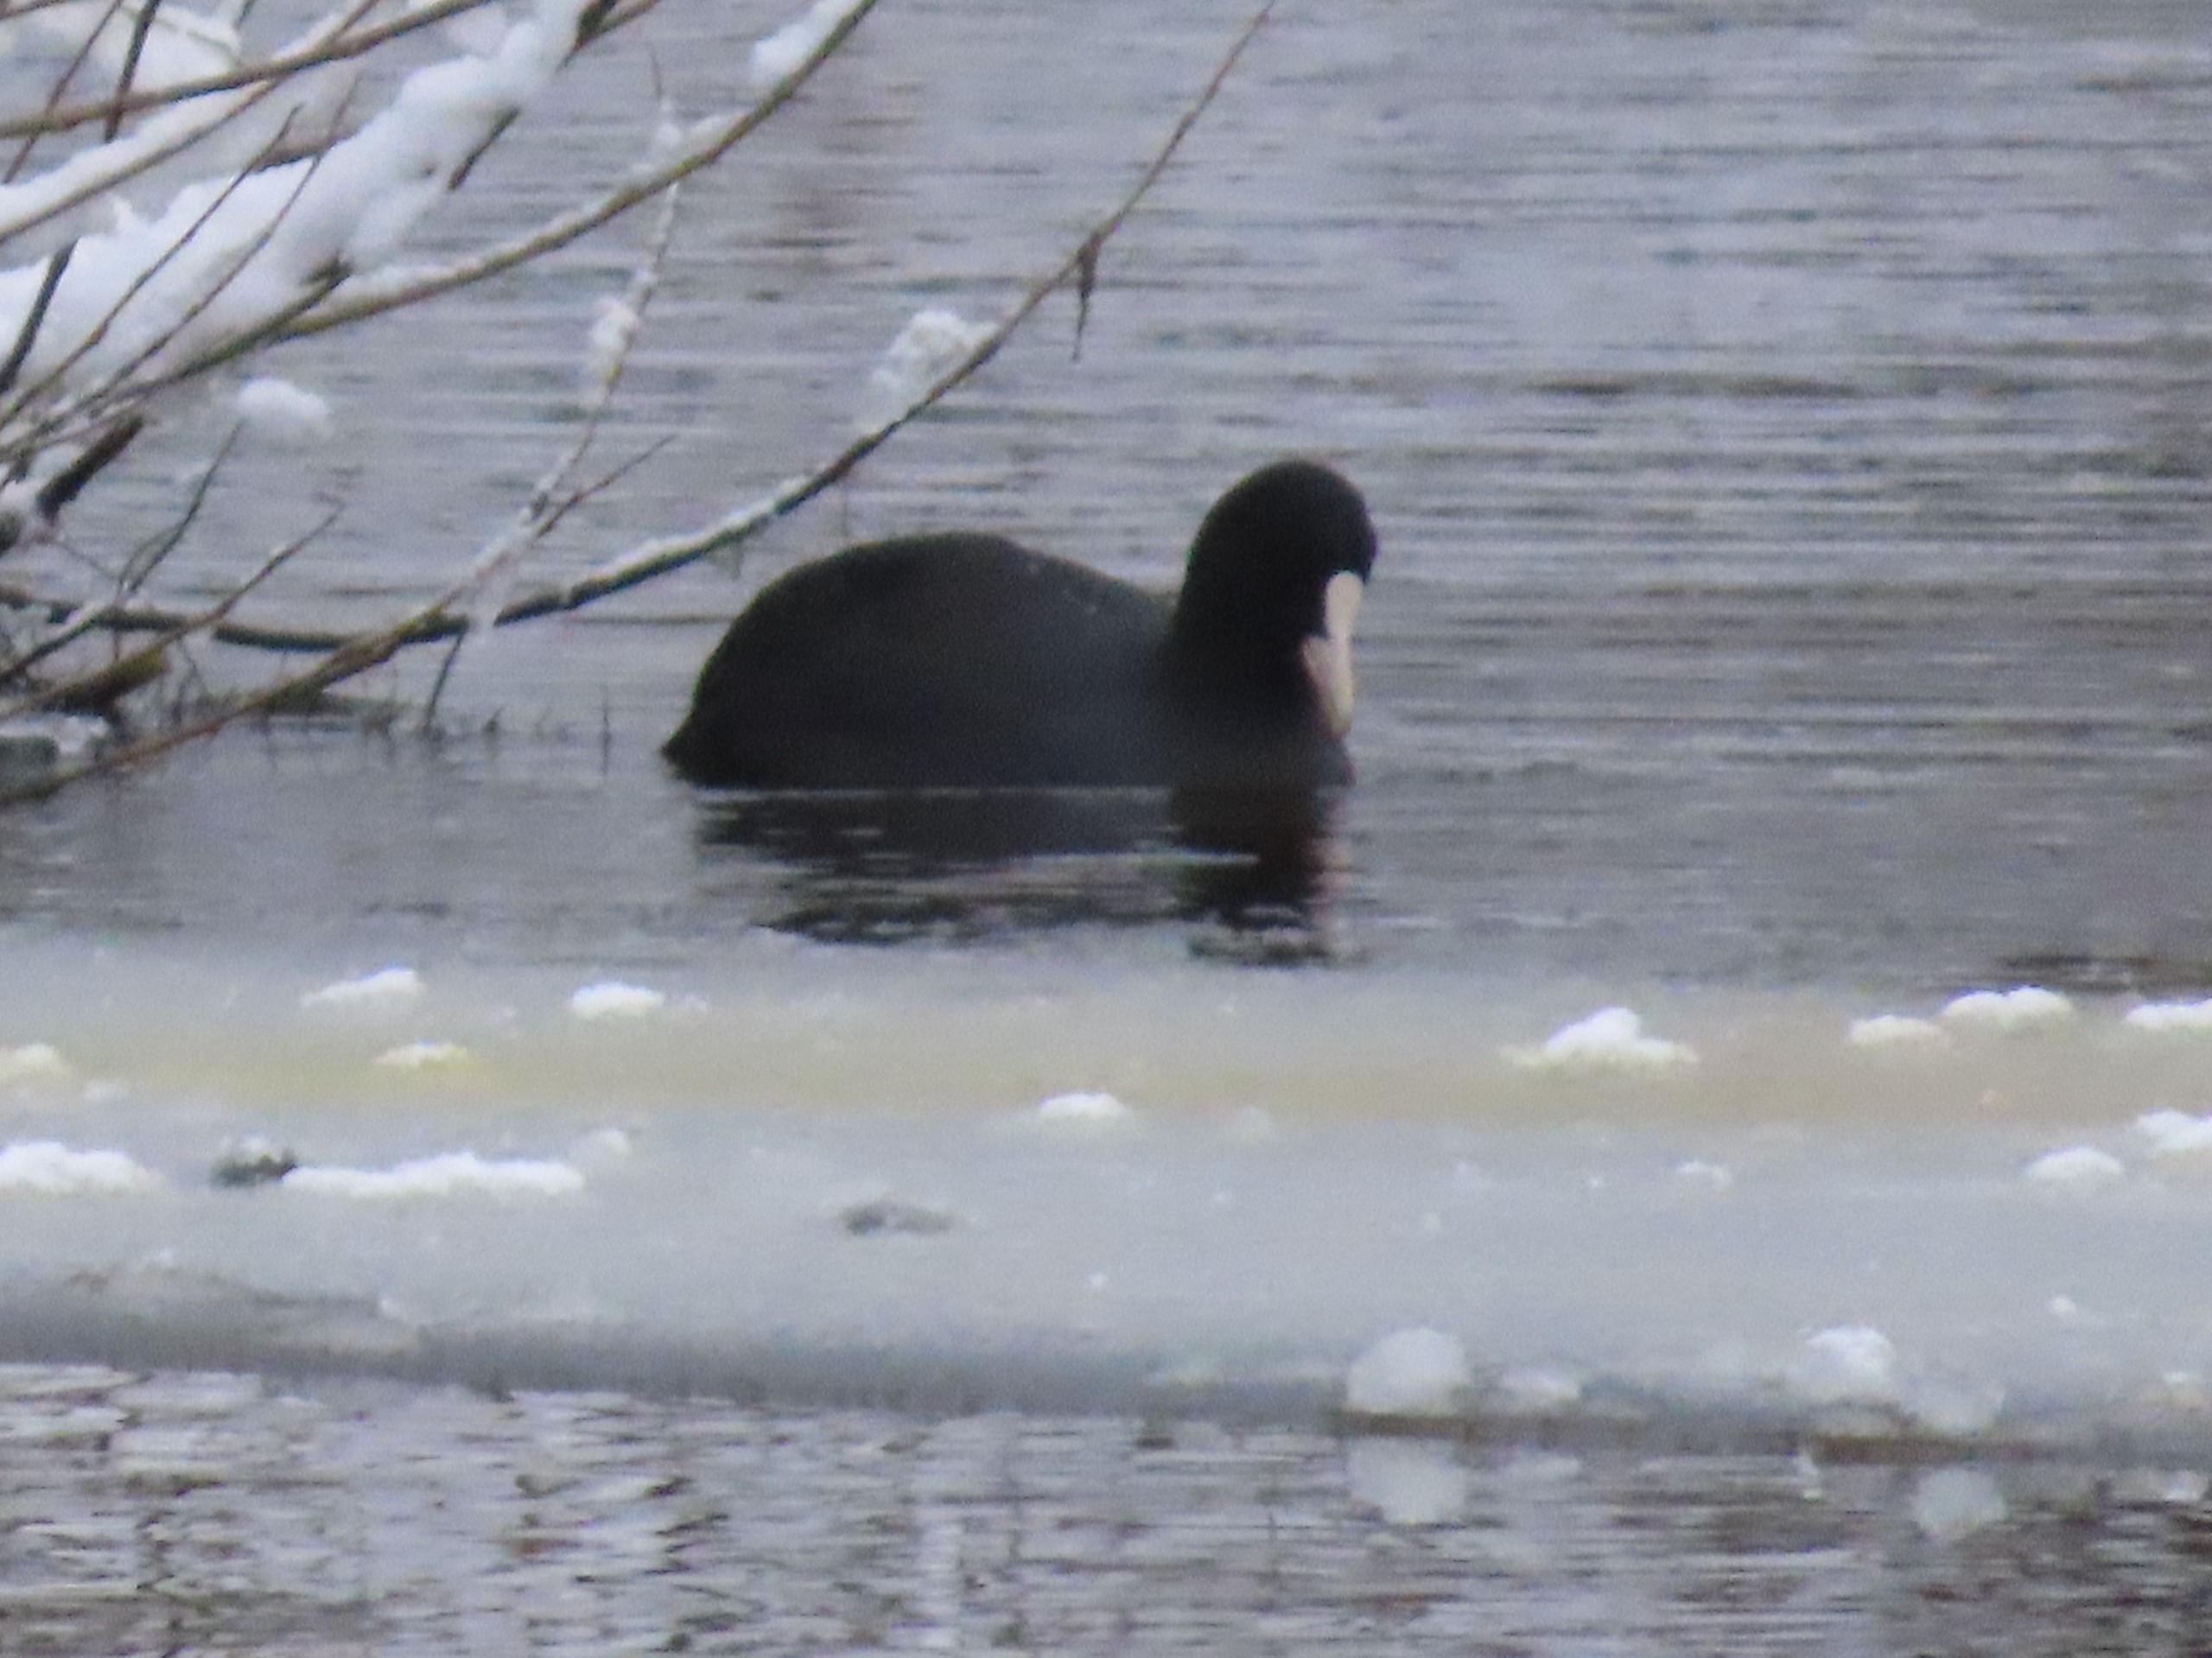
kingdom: Animalia
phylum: Chordata
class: Aves
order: Gruiformes
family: Rallidae
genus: Fulica
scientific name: Fulica atra
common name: Blishøne
